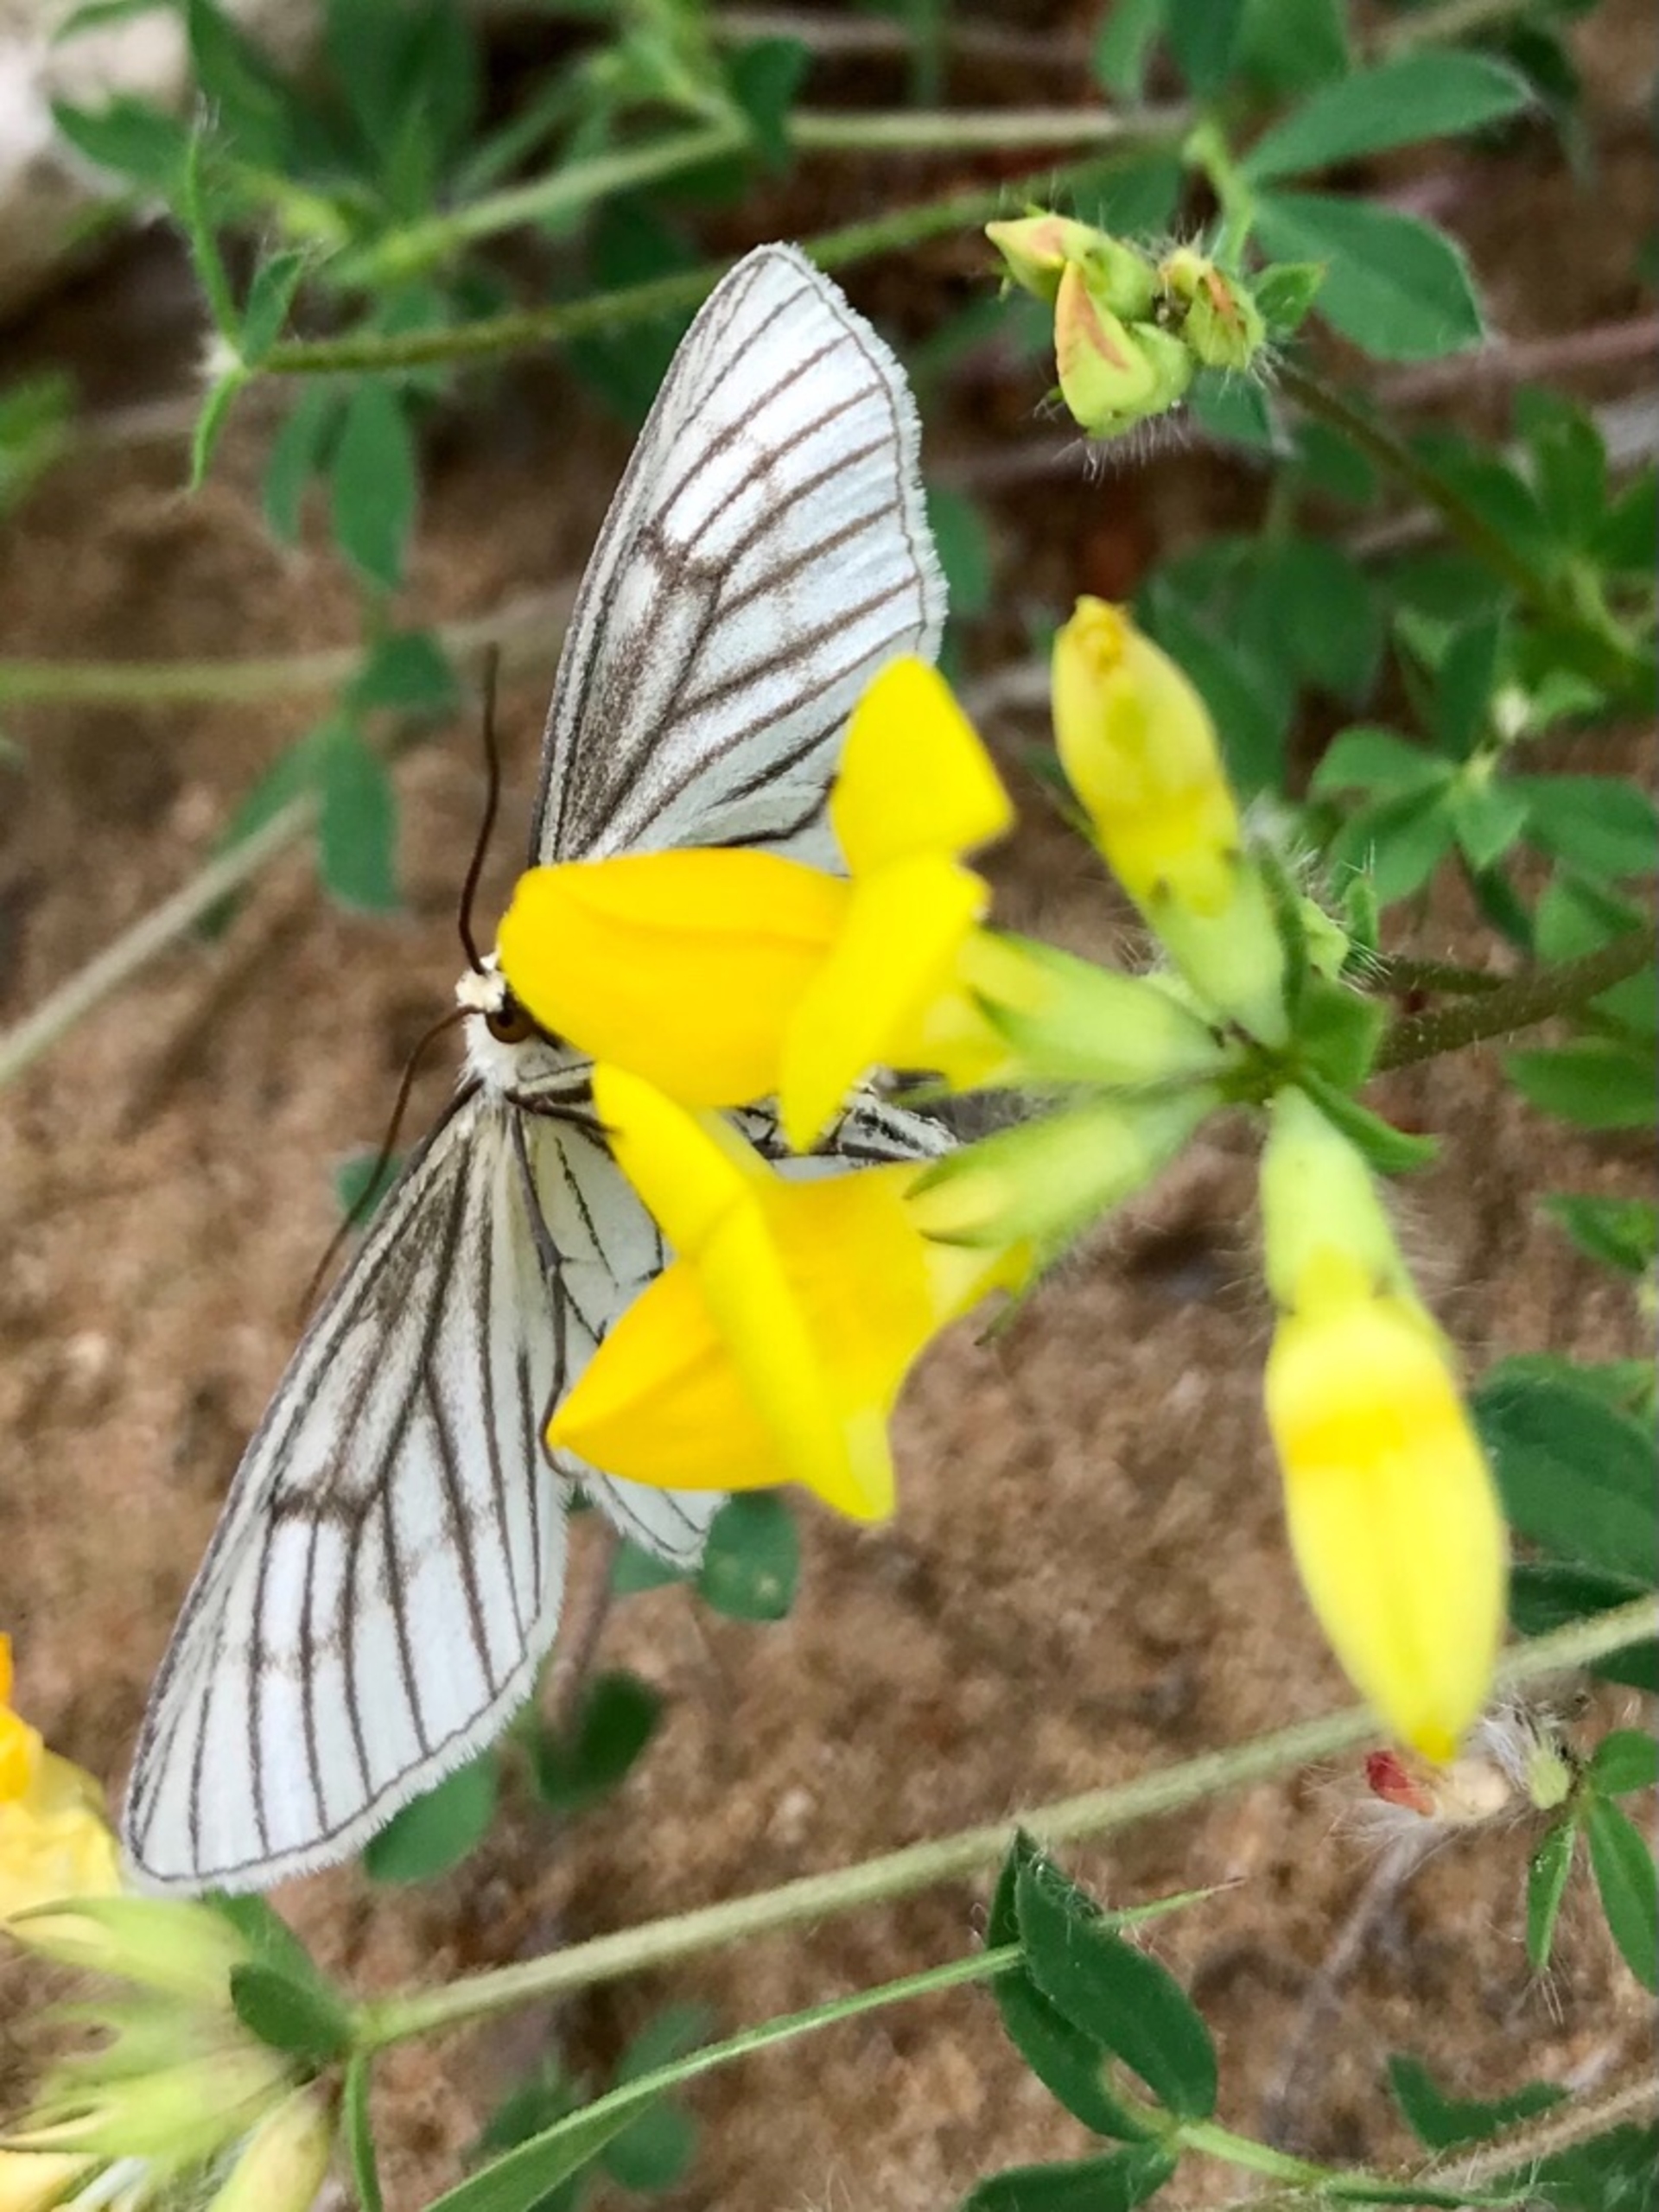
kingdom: Animalia
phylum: Arthropoda
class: Insecta
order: Lepidoptera
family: Geometridae
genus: Siona
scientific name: Siona lineata
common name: Hvidvingemåler
